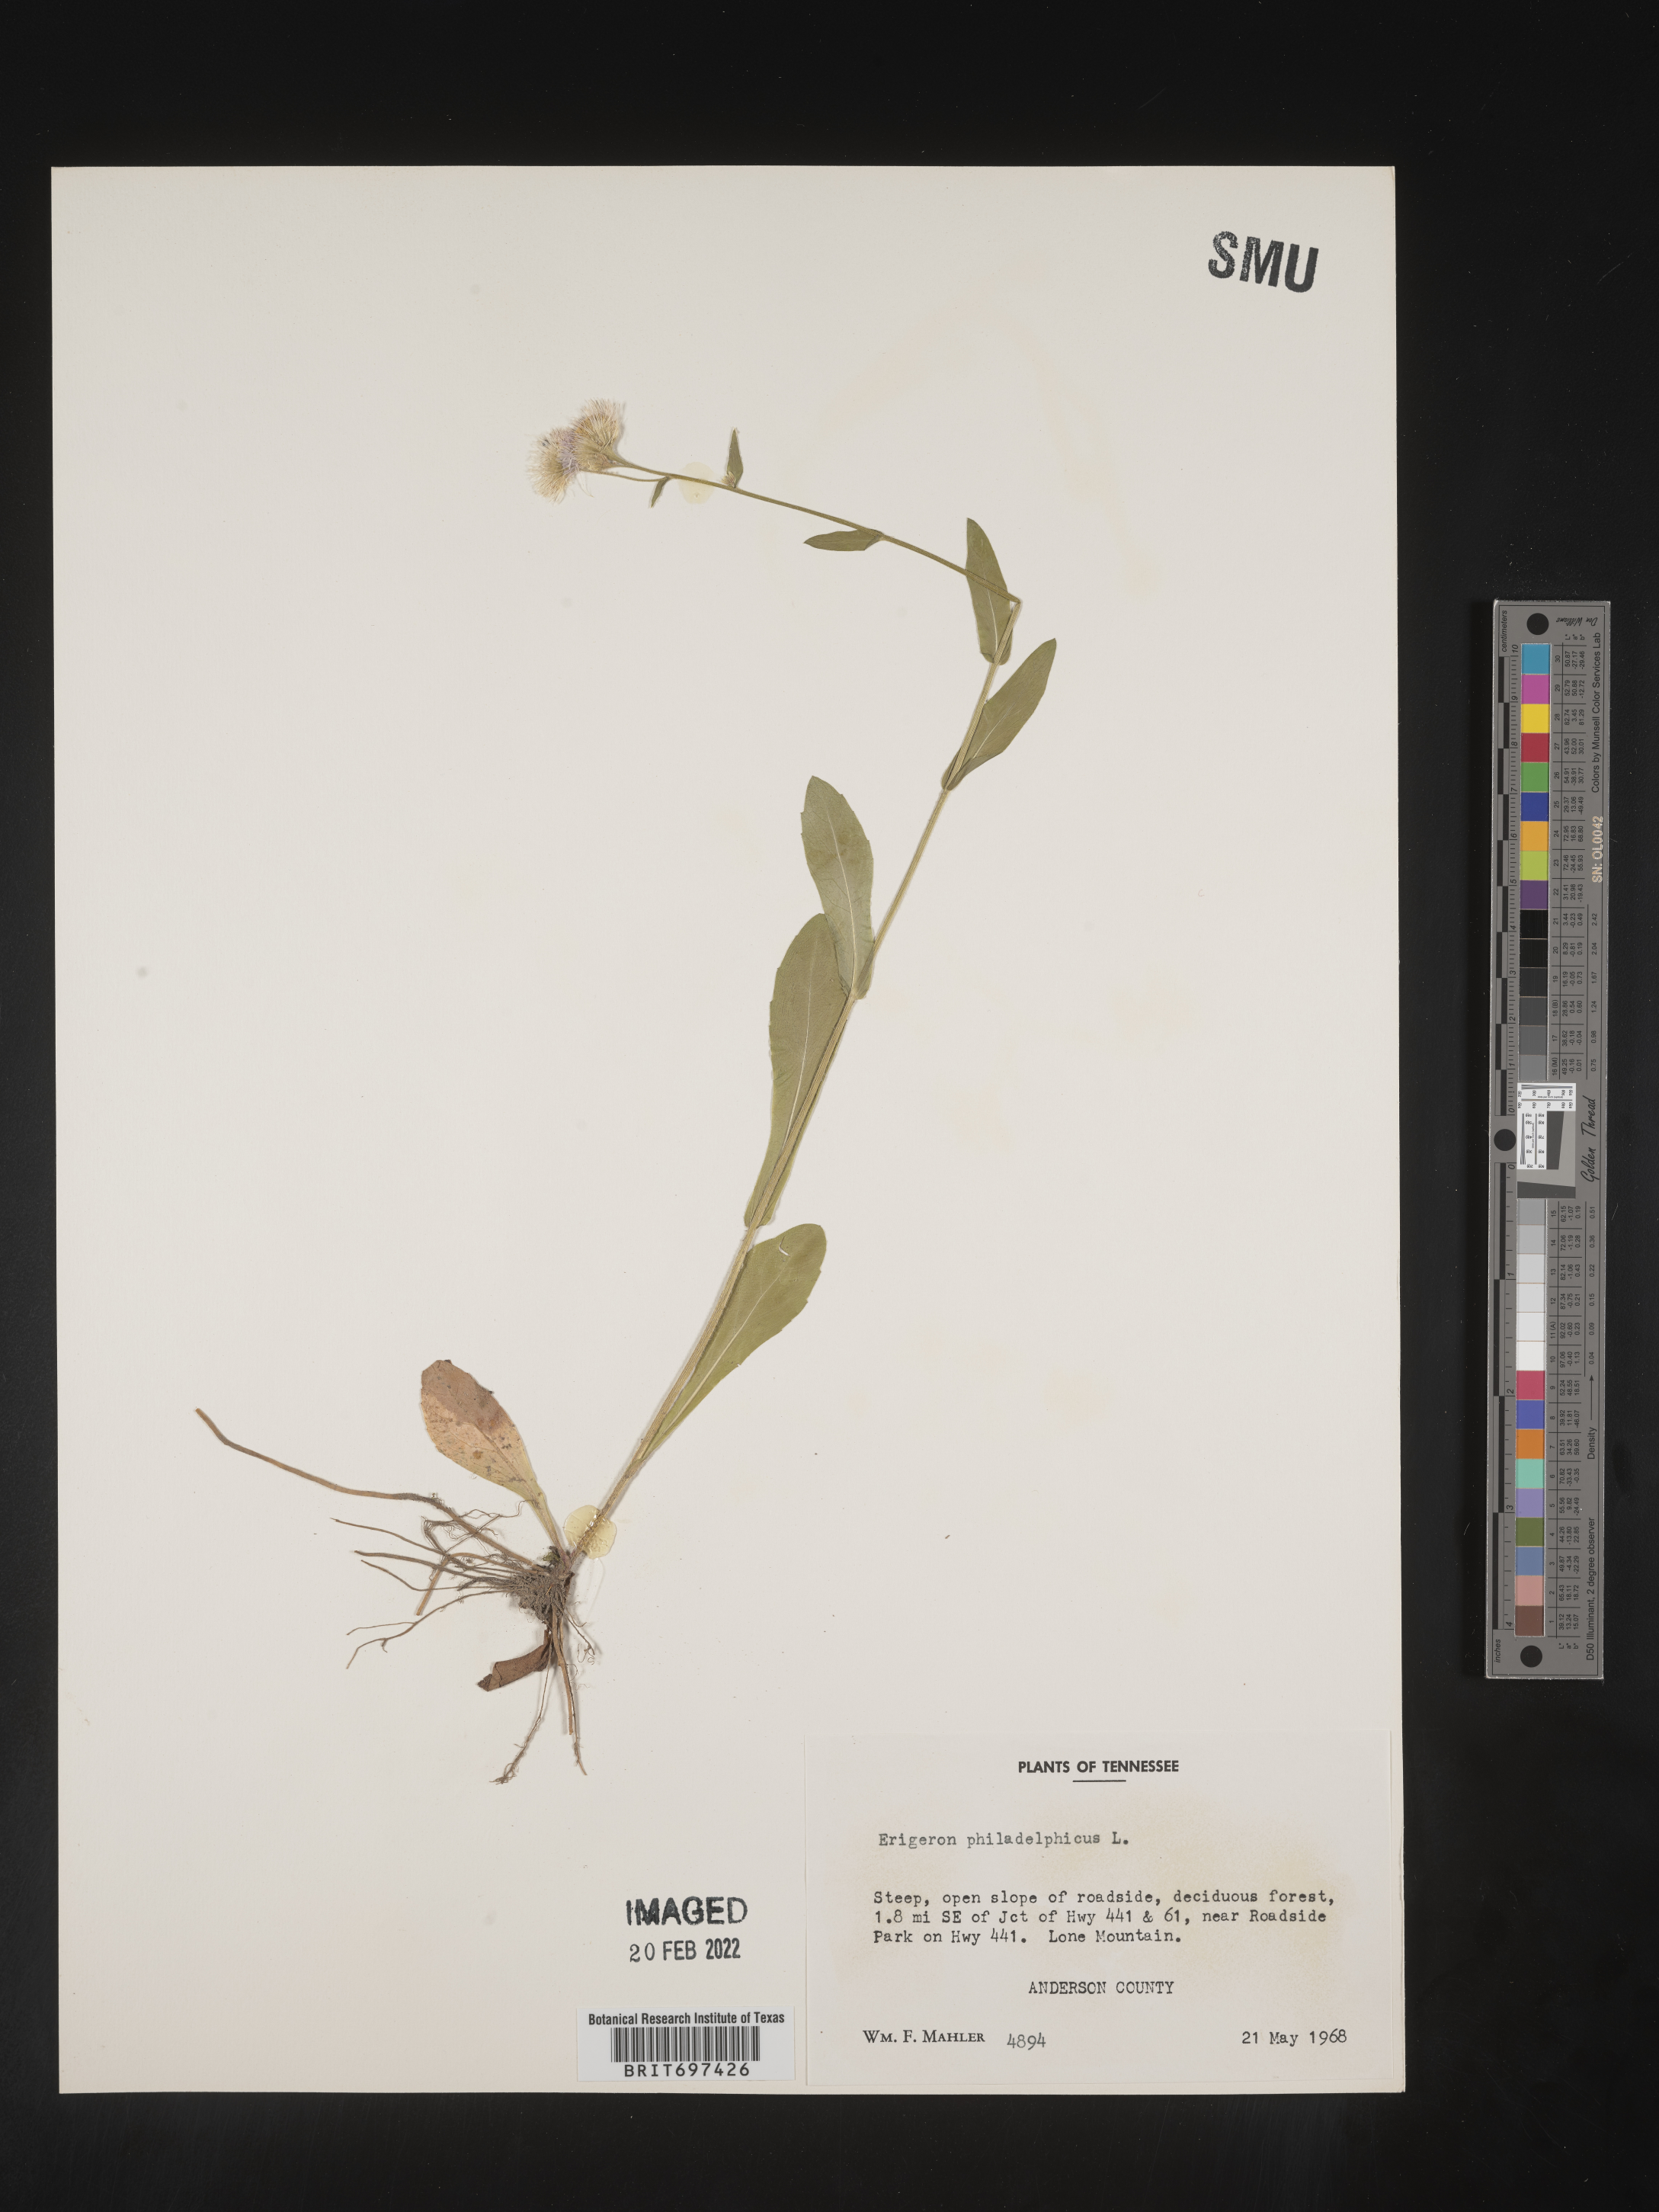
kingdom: Plantae
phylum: Tracheophyta
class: Magnoliopsida
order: Asterales
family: Asteraceae
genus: Erigeron
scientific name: Erigeron philadelphicus
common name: Robin's-plantain
